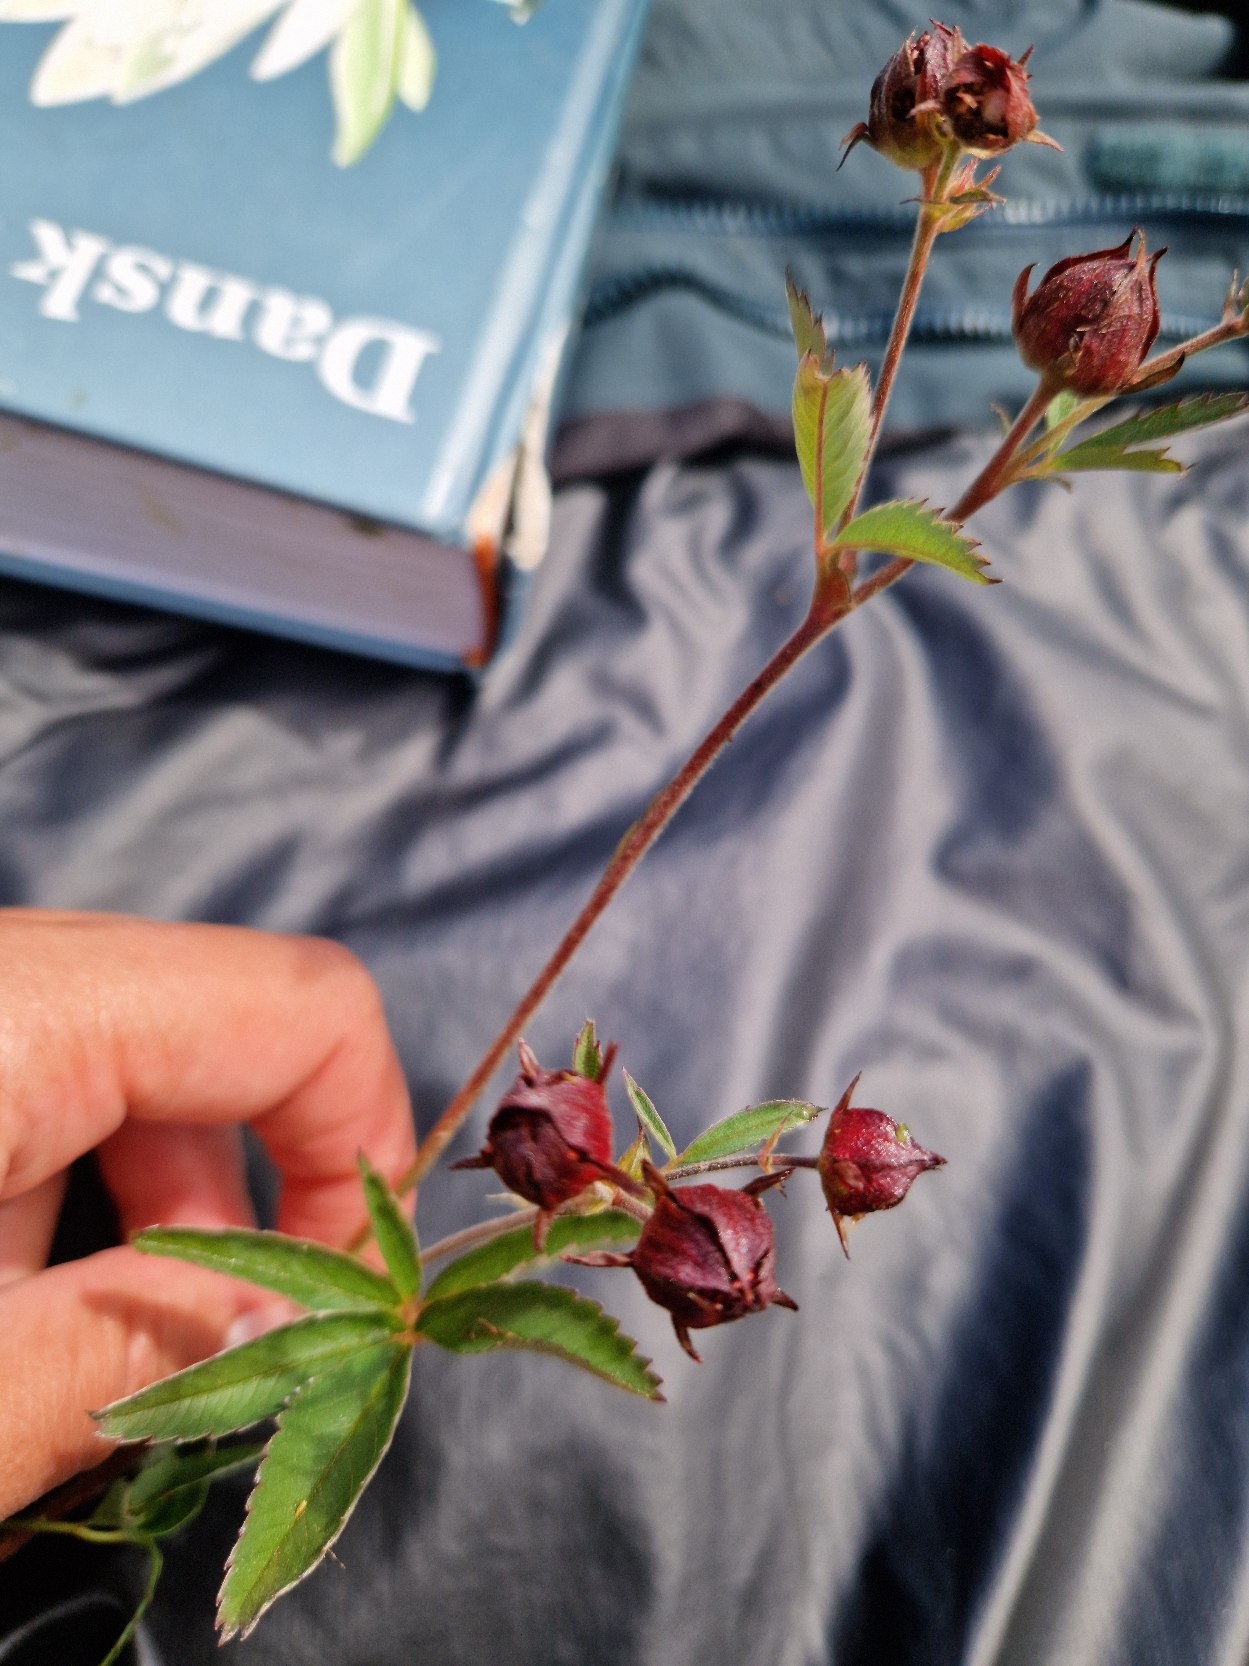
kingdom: Plantae
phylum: Tracheophyta
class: Magnoliopsida
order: Rosales
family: Rosaceae
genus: Comarum
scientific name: Comarum palustre
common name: Kragefod
